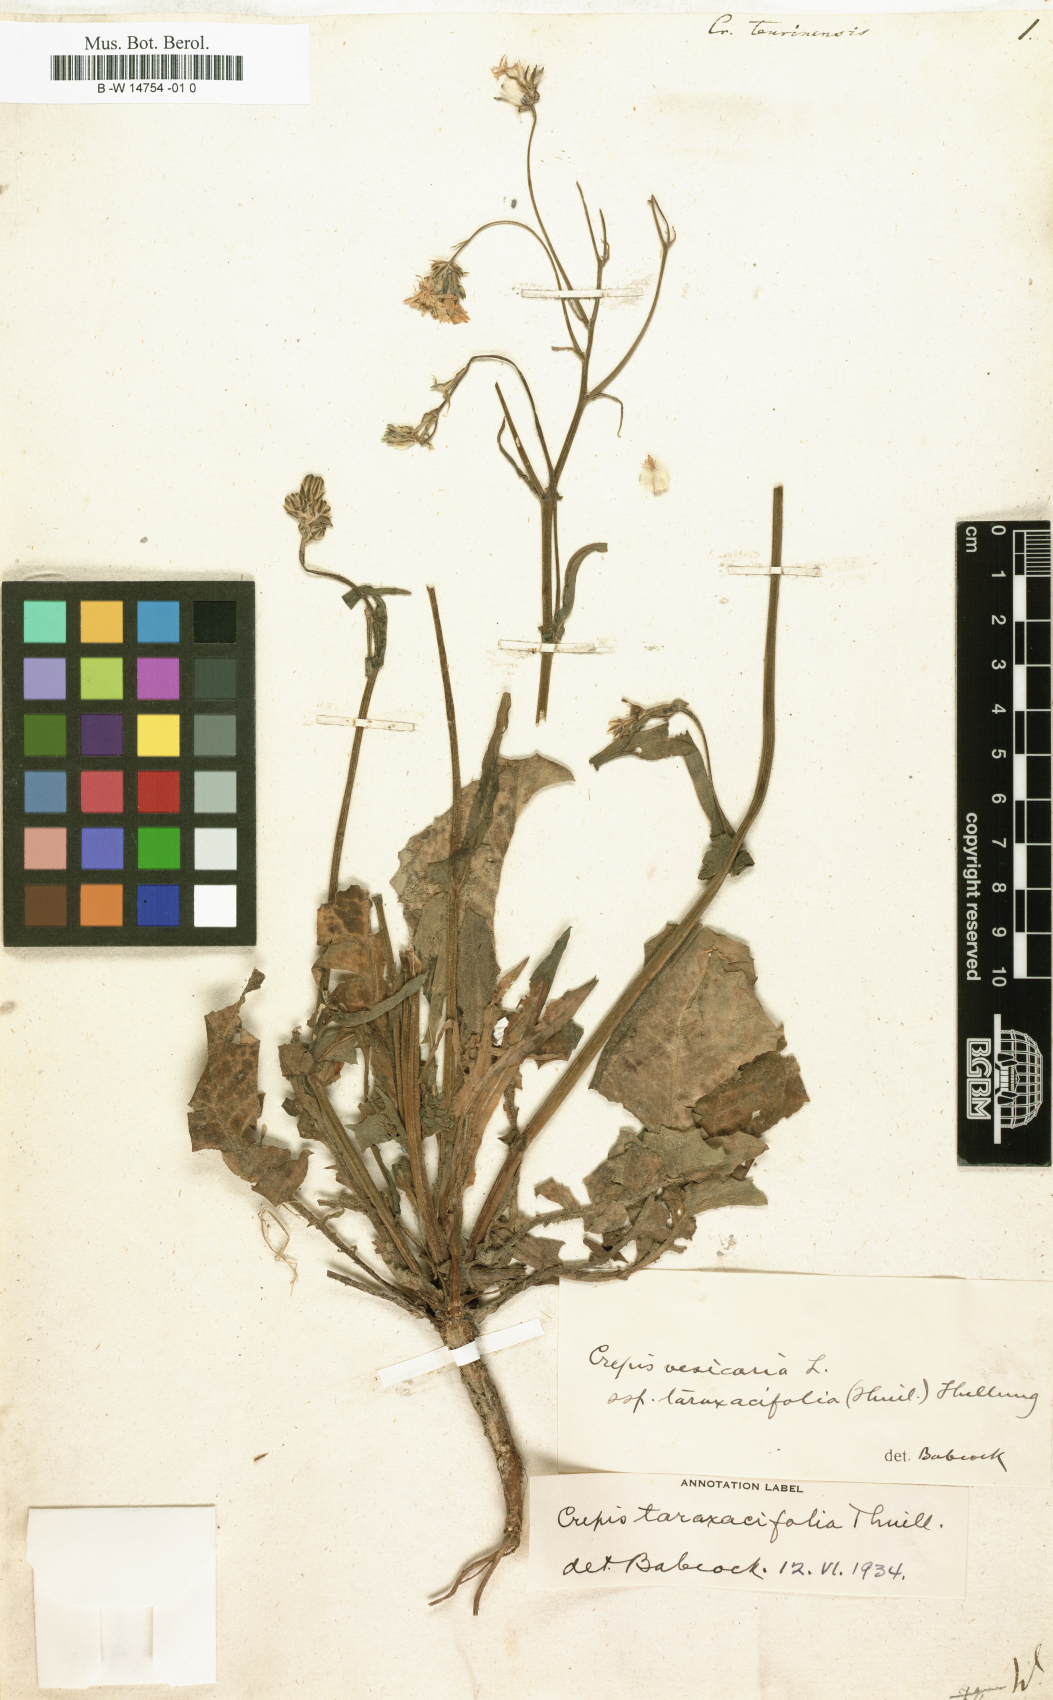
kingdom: Plantae
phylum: Tracheophyta
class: Magnoliopsida
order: Asterales
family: Asteraceae
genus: Crepis
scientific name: Crepis
